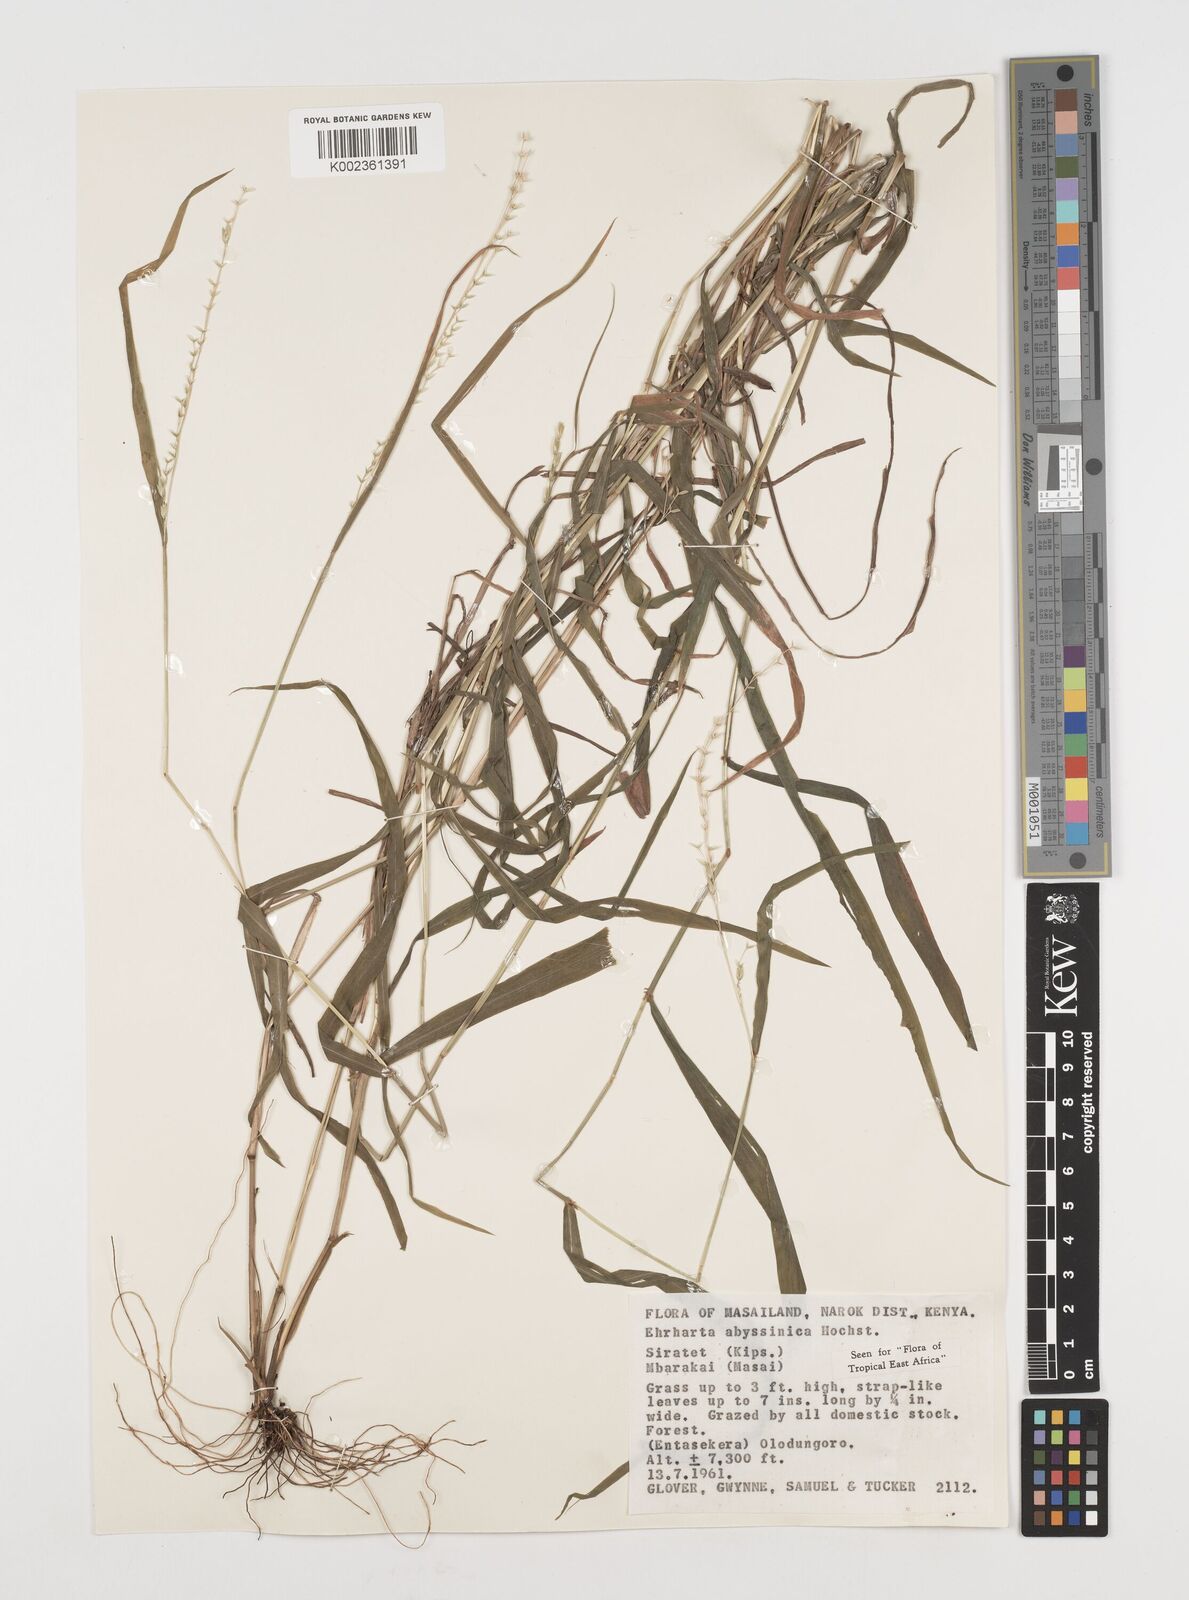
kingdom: Plantae
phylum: Tracheophyta
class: Liliopsida
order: Poales
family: Poaceae
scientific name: Poaceae
